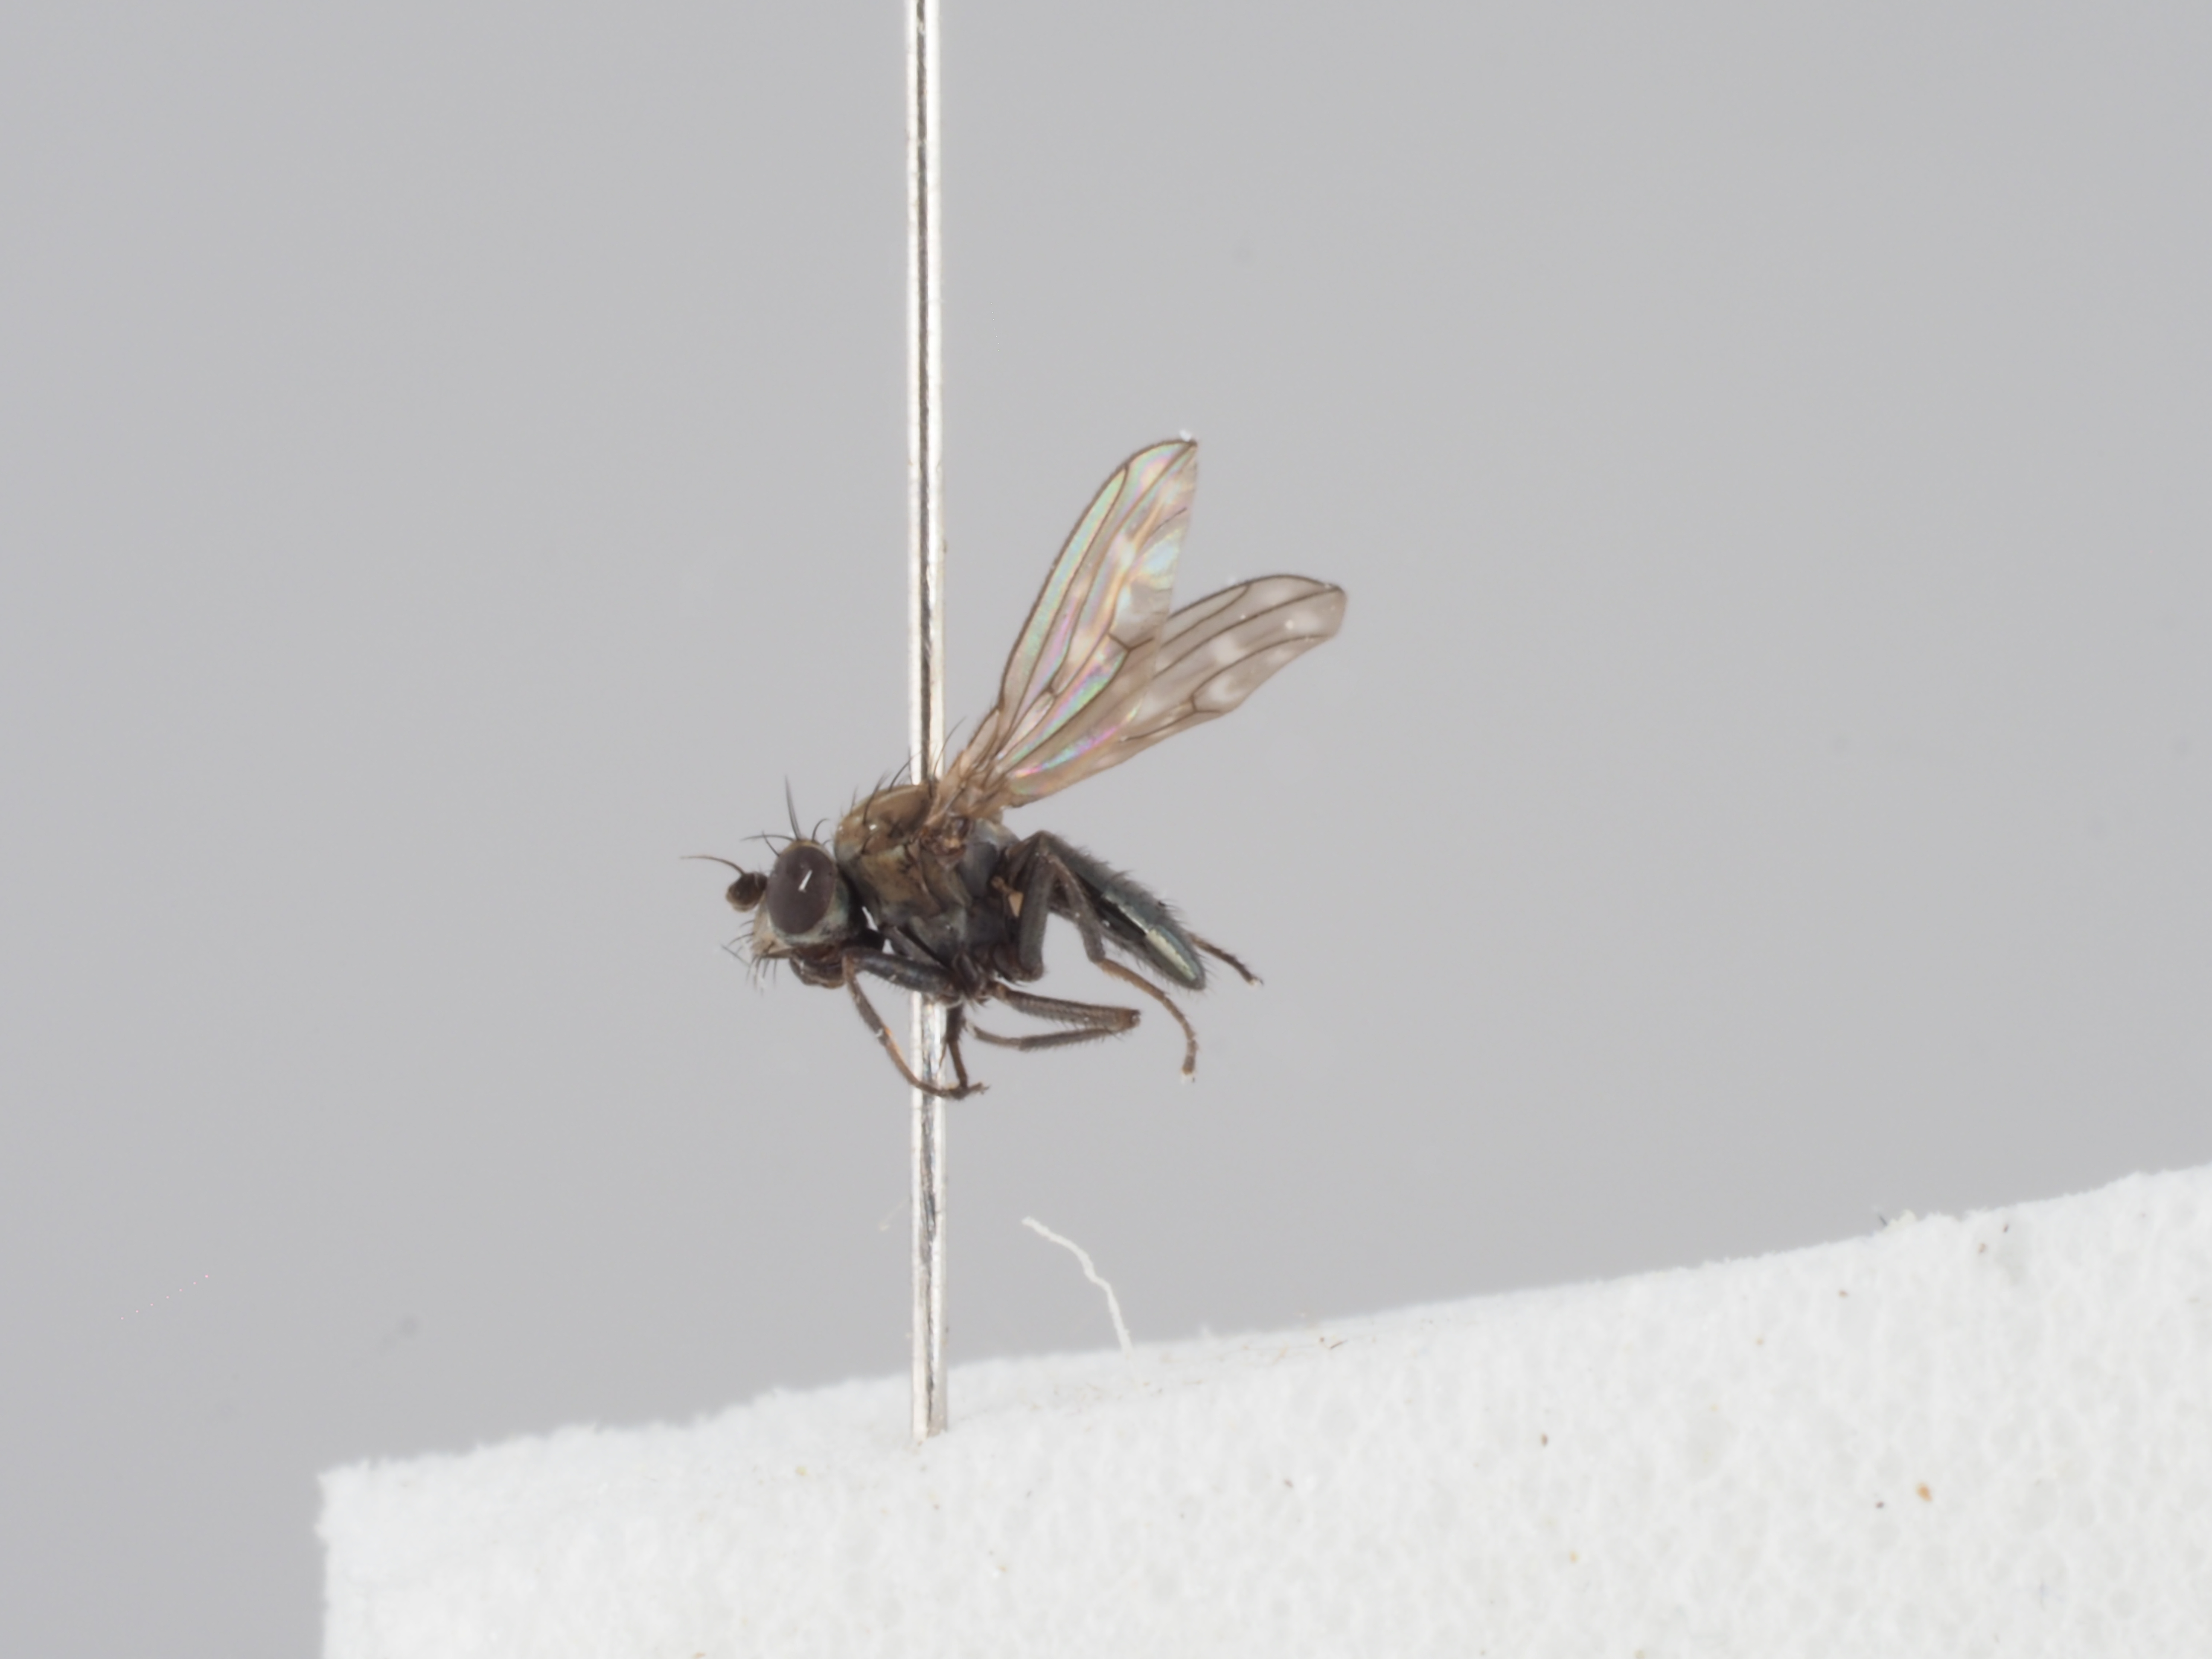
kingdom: Animalia
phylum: Arthropoda
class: Insecta
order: Diptera
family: Ephydridae
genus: Scatophila
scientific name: Scatophila despecta
